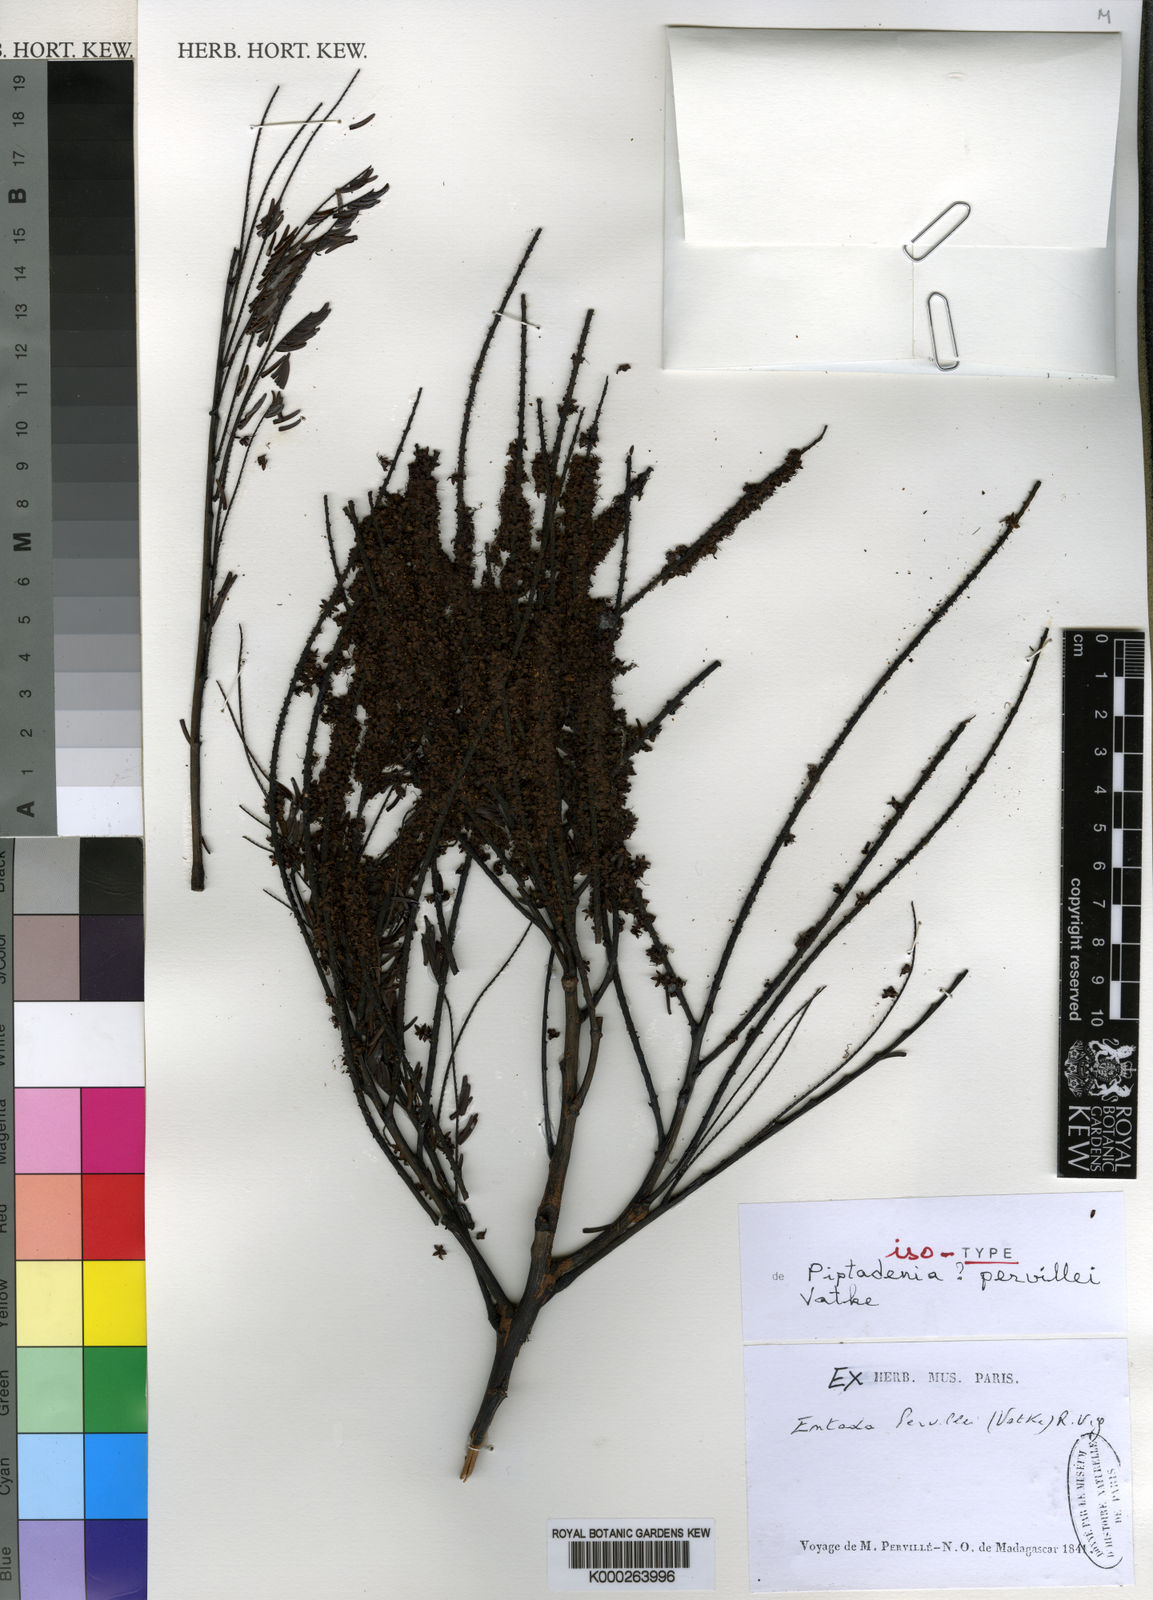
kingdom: Plantae
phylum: Tracheophyta
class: Magnoliopsida
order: Fabales
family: Fabaceae
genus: Entada
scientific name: Entada pervillei
